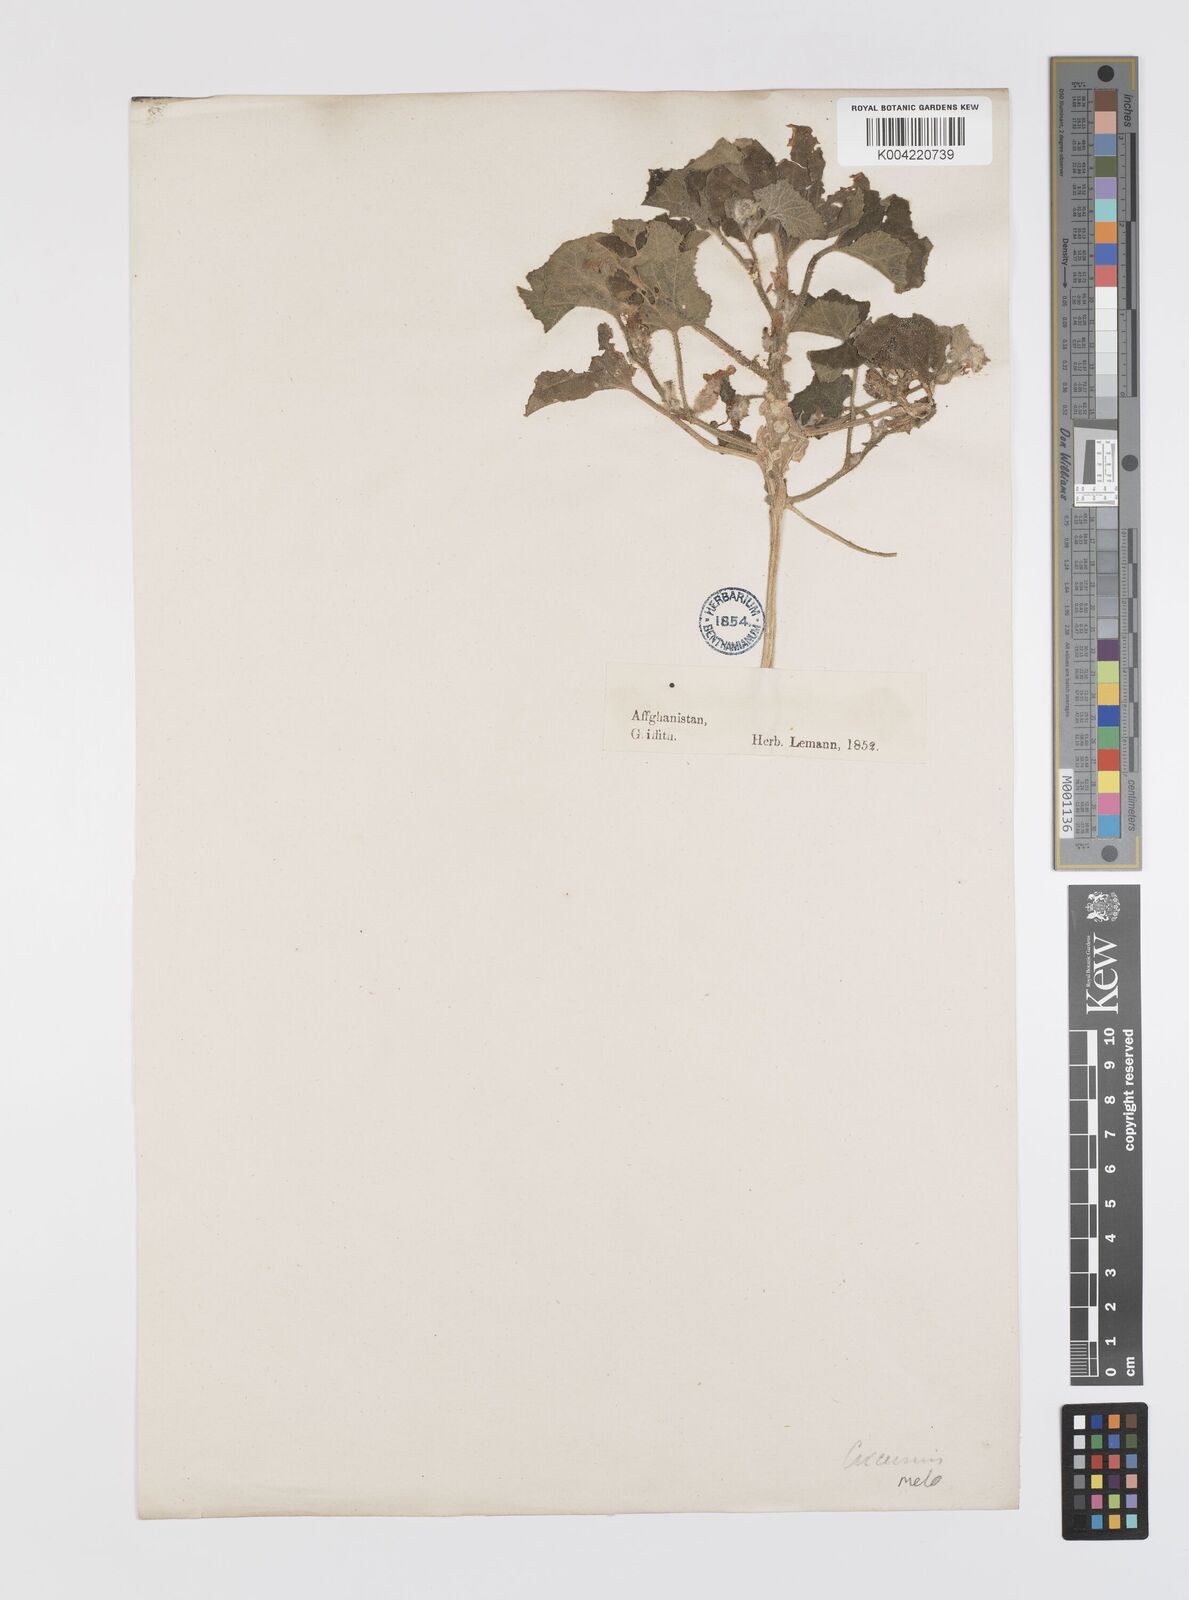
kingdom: Plantae
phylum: Tracheophyta
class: Magnoliopsida
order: Cucurbitales
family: Cucurbitaceae
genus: Cucumis
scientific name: Cucumis melo
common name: Melon
